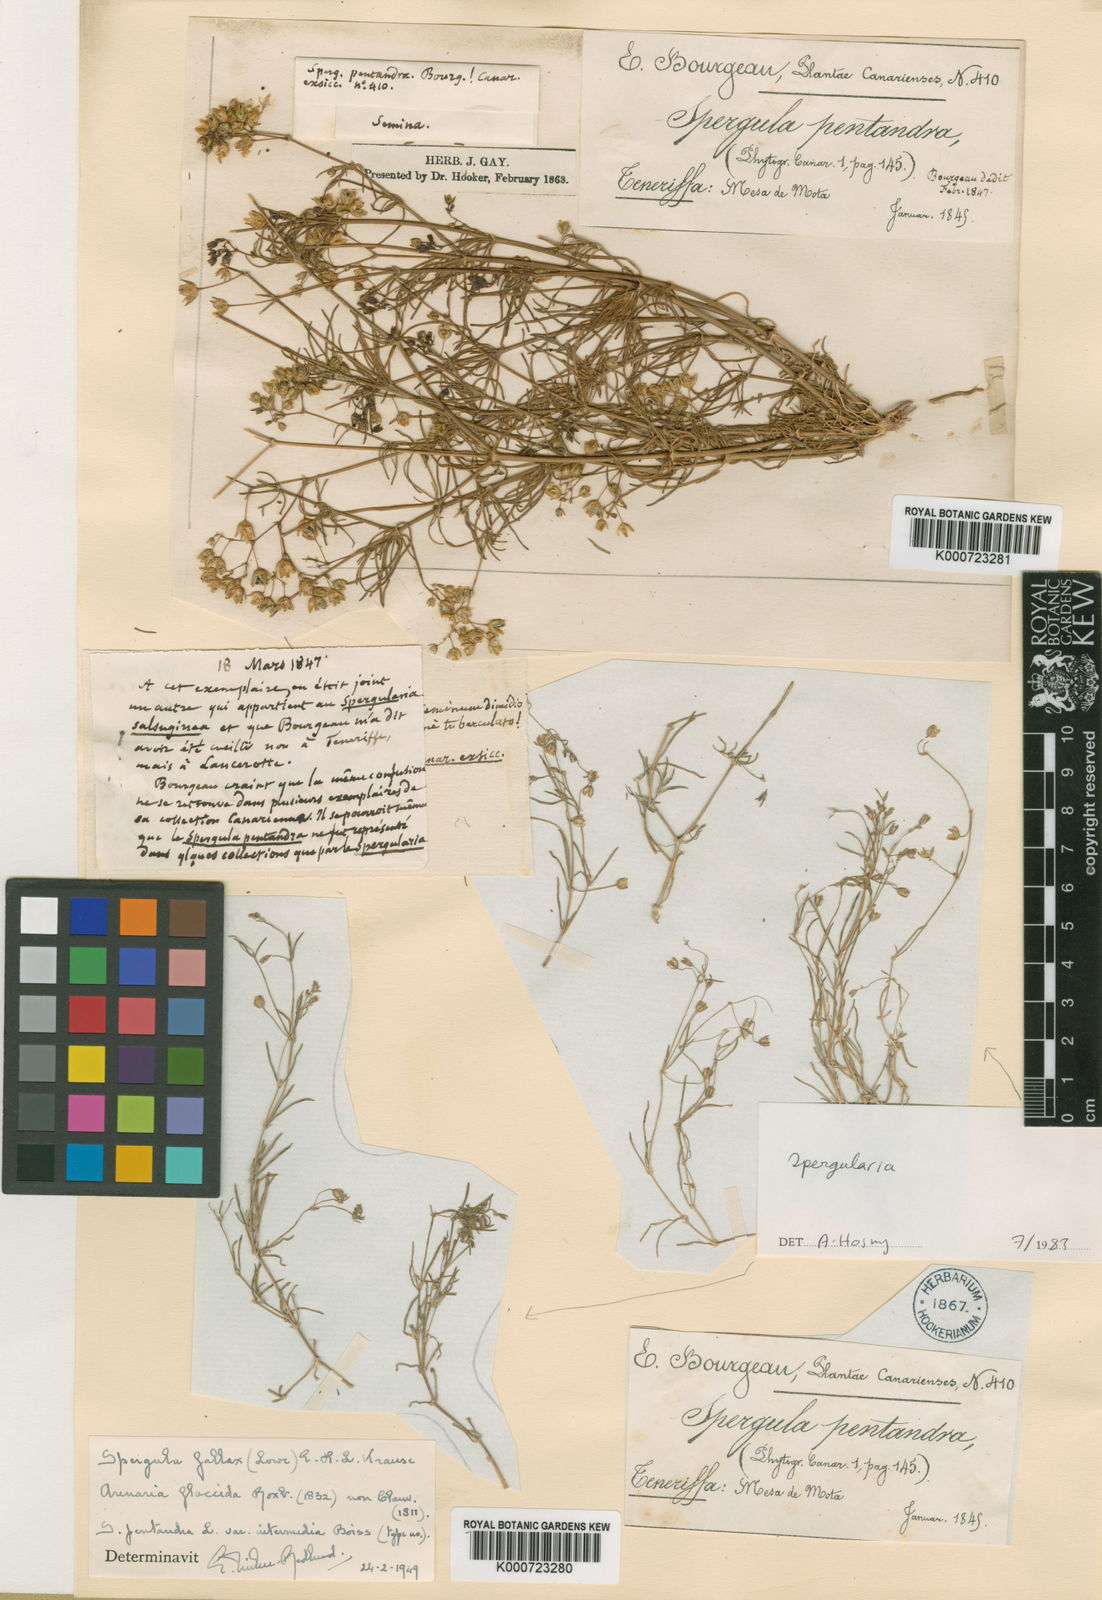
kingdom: Plantae
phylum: Tracheophyta
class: Magnoliopsida
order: Caryophyllales
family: Caryophyllaceae
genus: Spergularia
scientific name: Spergularia flaccida
